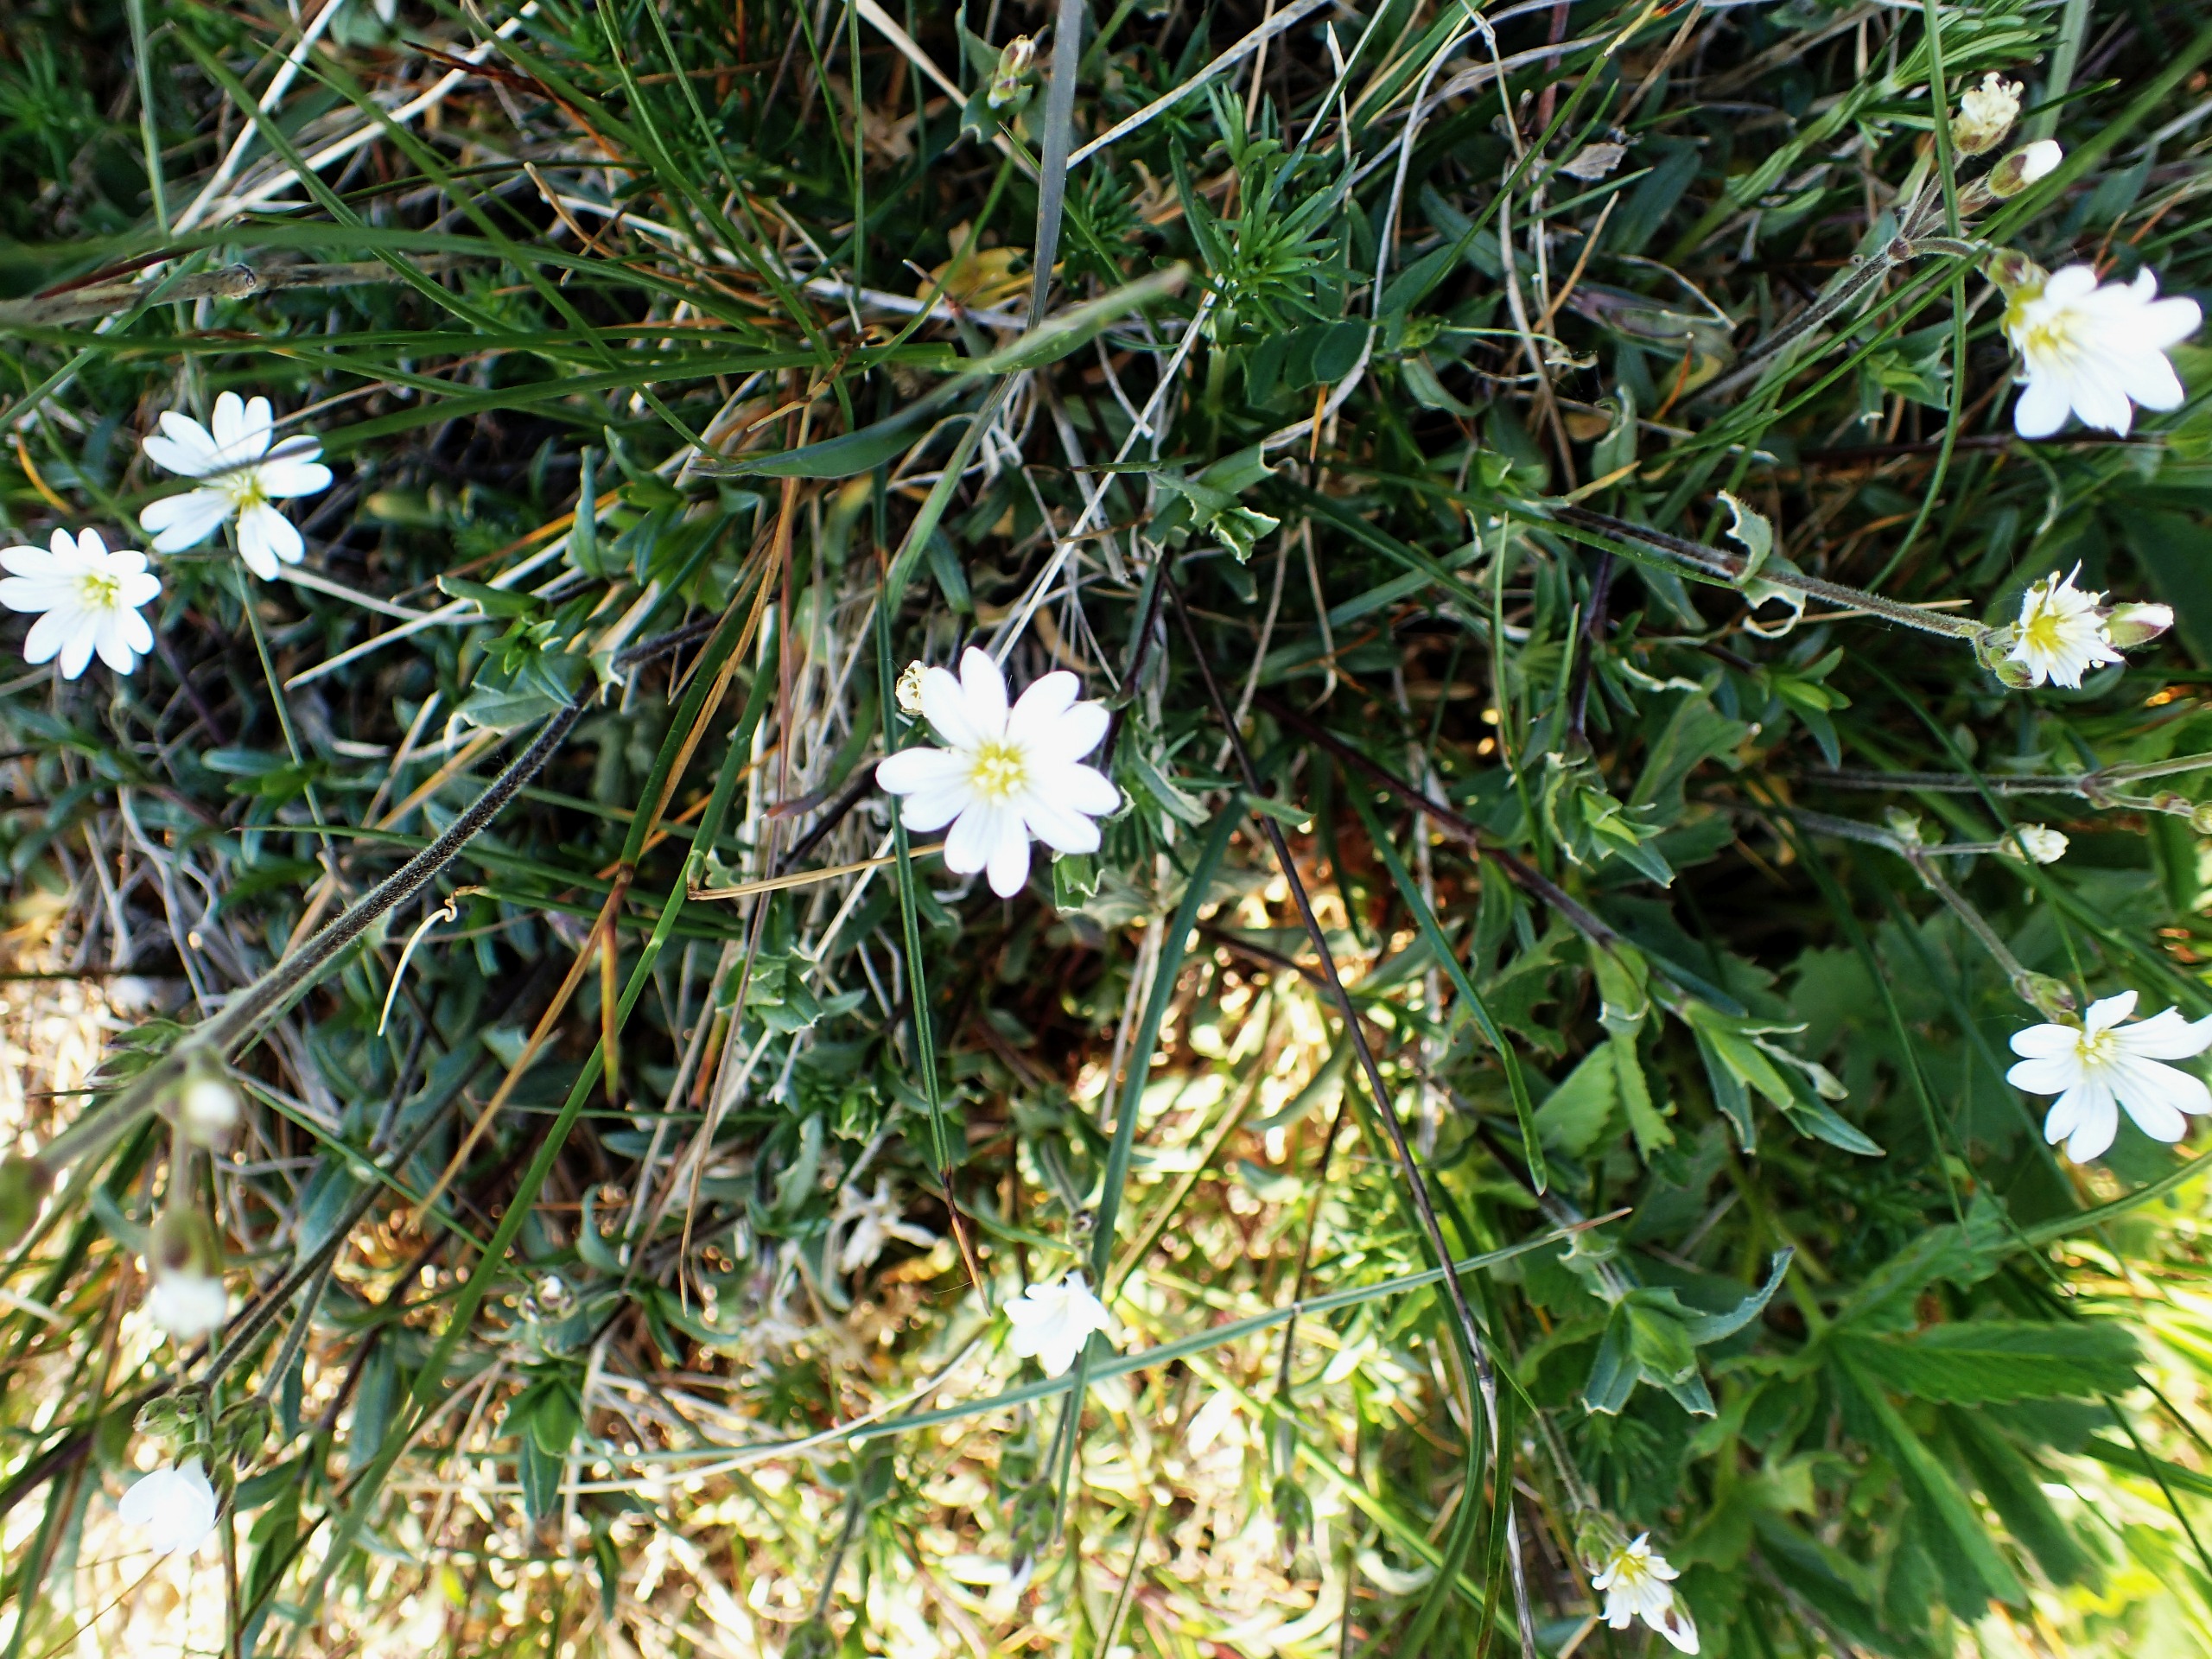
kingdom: Plantae
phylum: Tracheophyta
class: Magnoliopsida
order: Caryophyllales
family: Caryophyllaceae
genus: Cerastium
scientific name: Cerastium arvense
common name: Storblomstret hønsetarm
